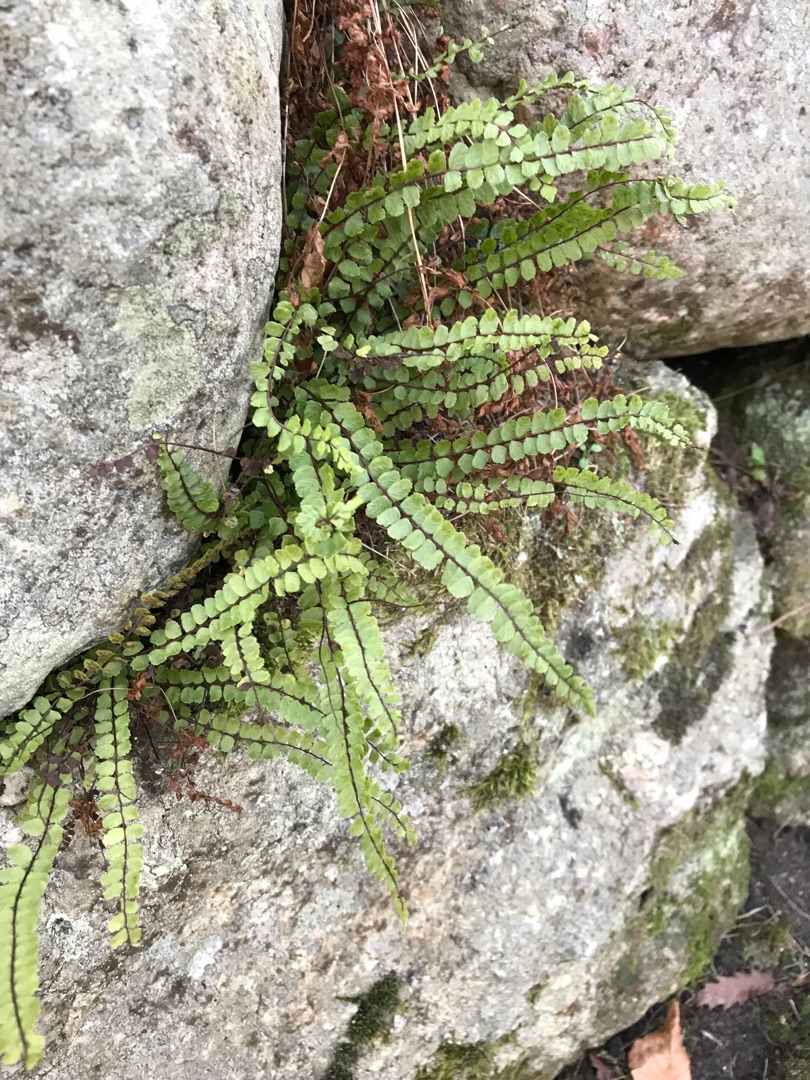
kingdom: Plantae
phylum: Tracheophyta
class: Polypodiopsida
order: Polypodiales
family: Aspleniaceae
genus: Asplenium
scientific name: Asplenium trichomanes
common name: Rundfinnet radeløv
